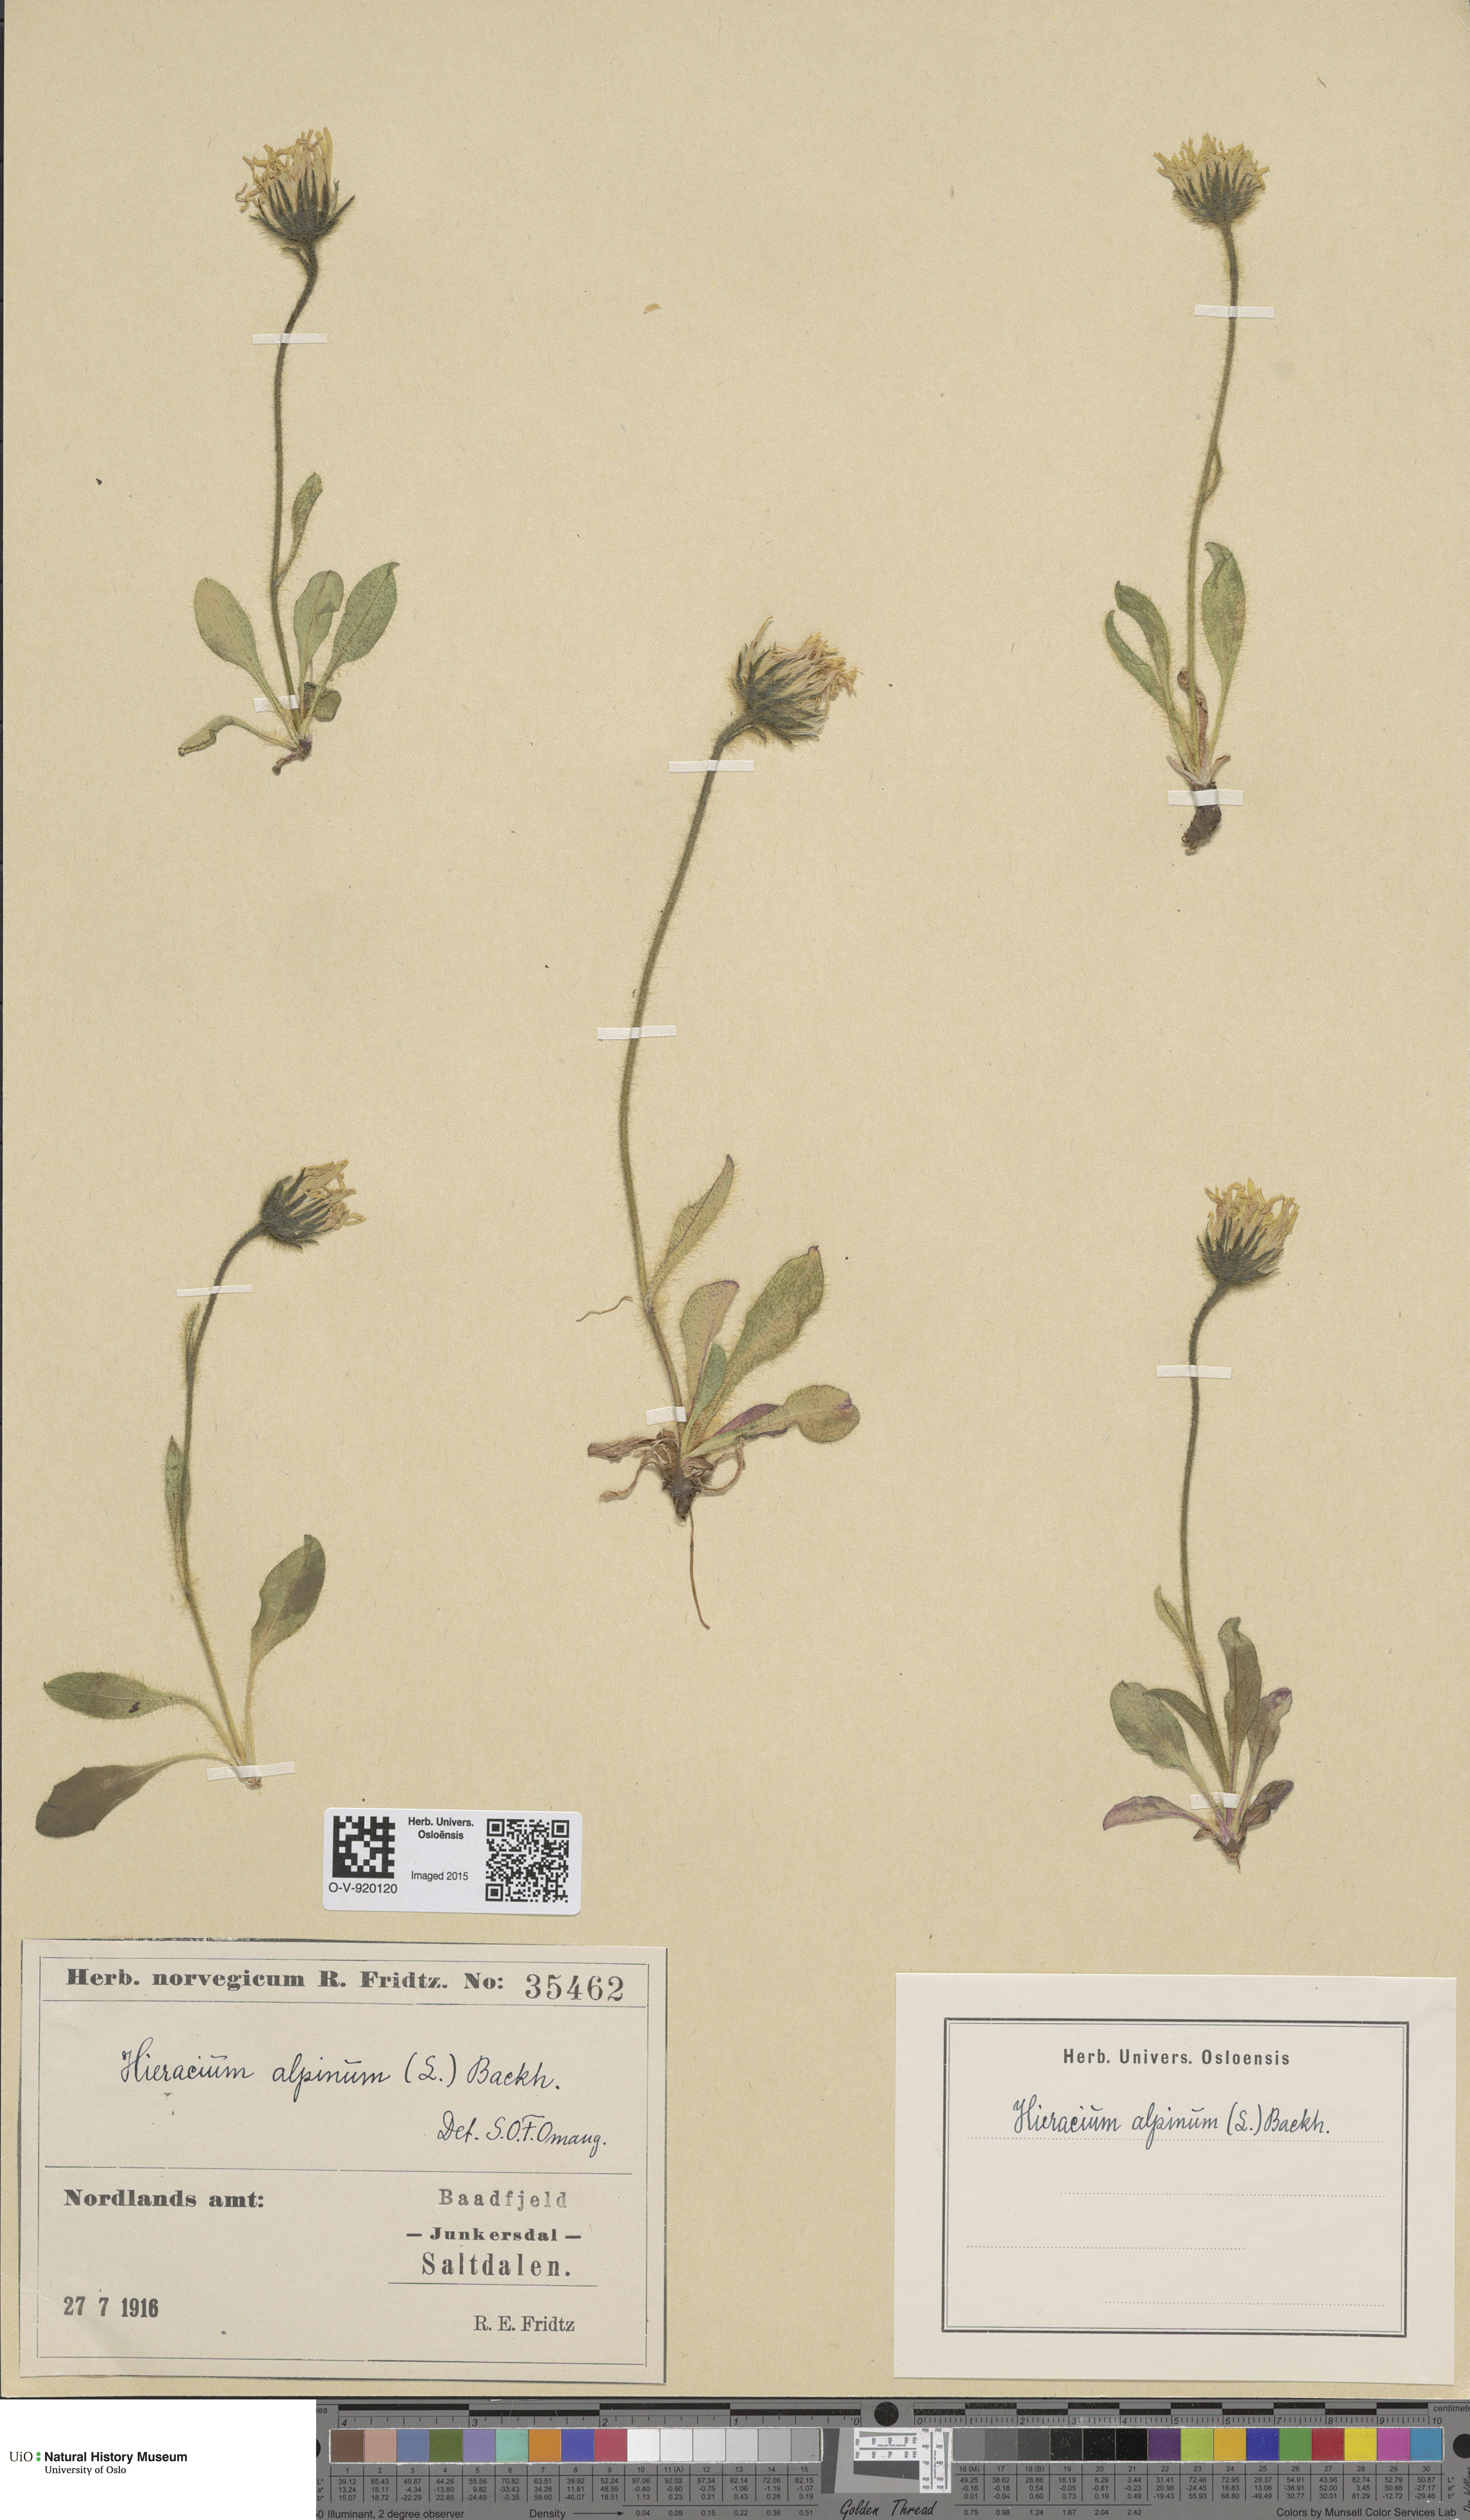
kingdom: Plantae
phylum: Tracheophyta
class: Magnoliopsida
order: Asterales
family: Asteraceae
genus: Hieracium
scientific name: Hieracium alpinum
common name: Alpine hawkweed
